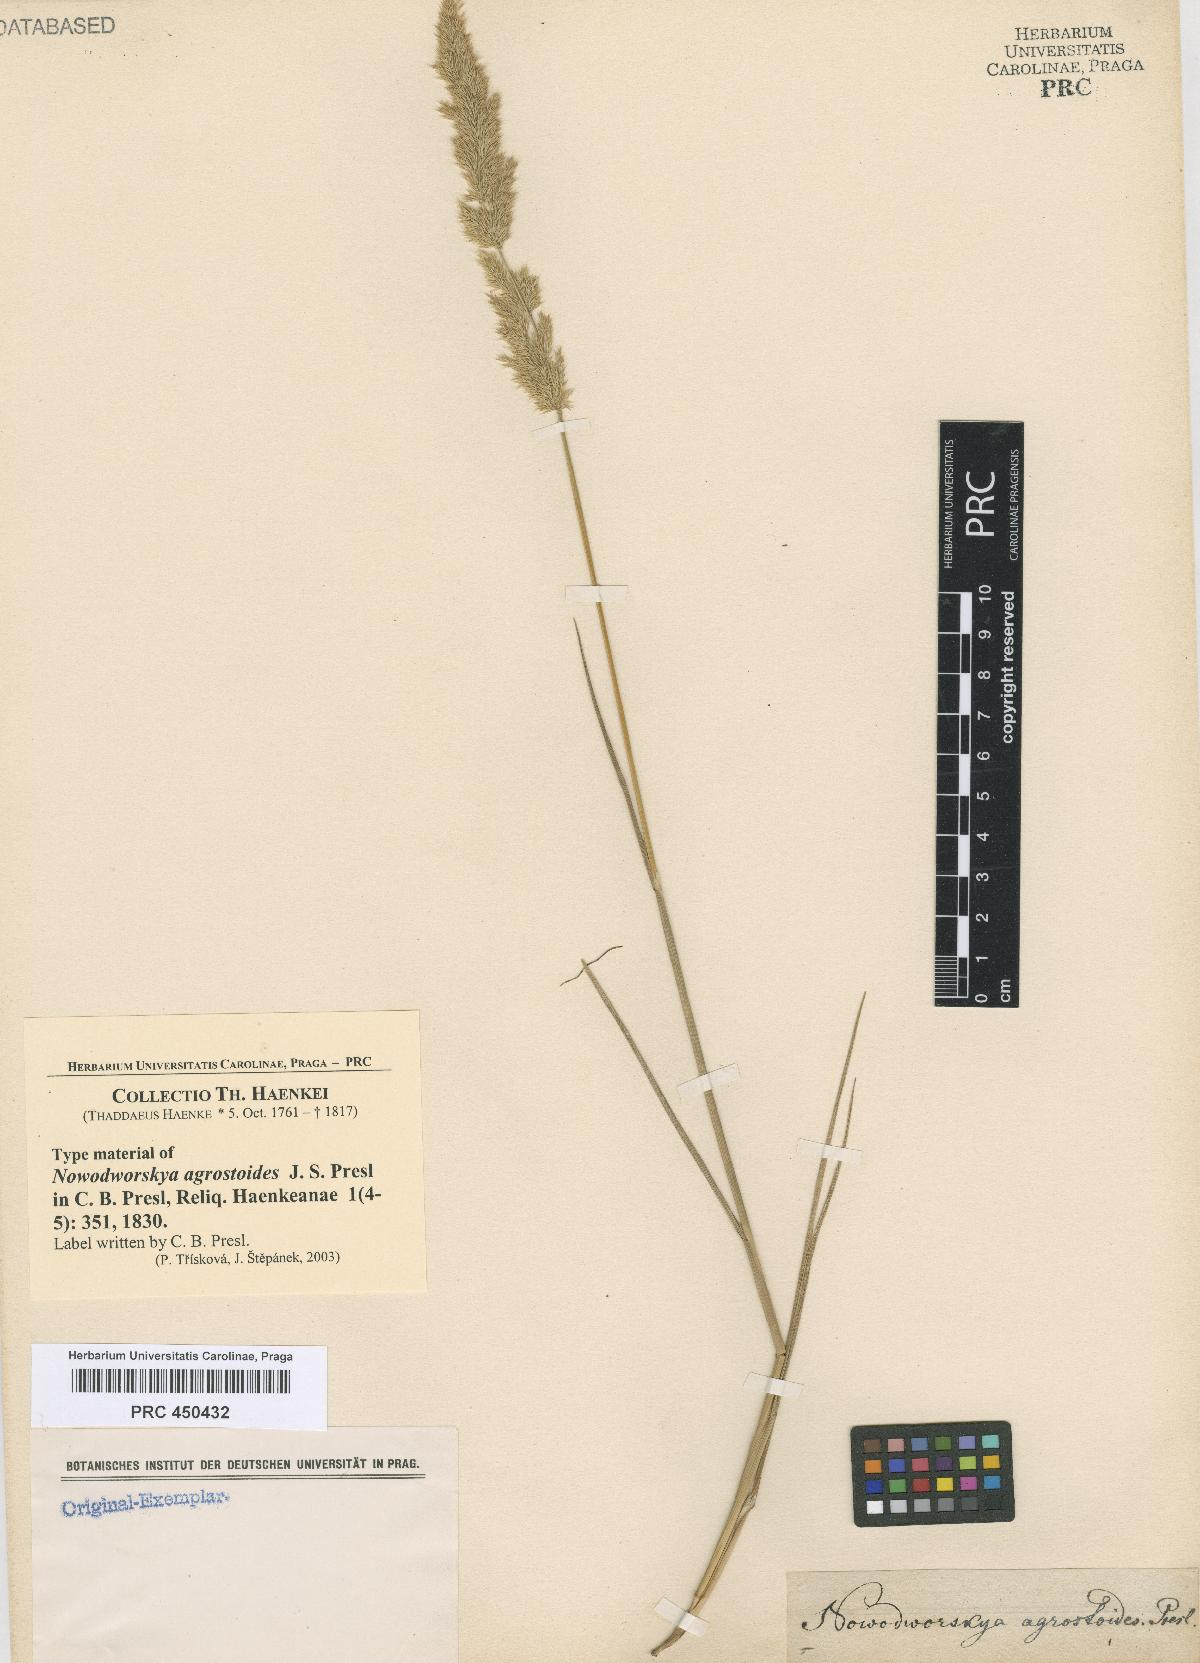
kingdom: Plantae
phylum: Tracheophyta
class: Liliopsida
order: Poales
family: Poaceae
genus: Polypogon
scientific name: Polypogon elongatus
